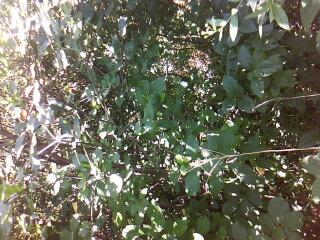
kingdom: Plantae
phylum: Tracheophyta
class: Liliopsida
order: Poales
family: Cyperaceae
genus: Carex
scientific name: Carex hystericina
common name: Bottlebrush sedge
